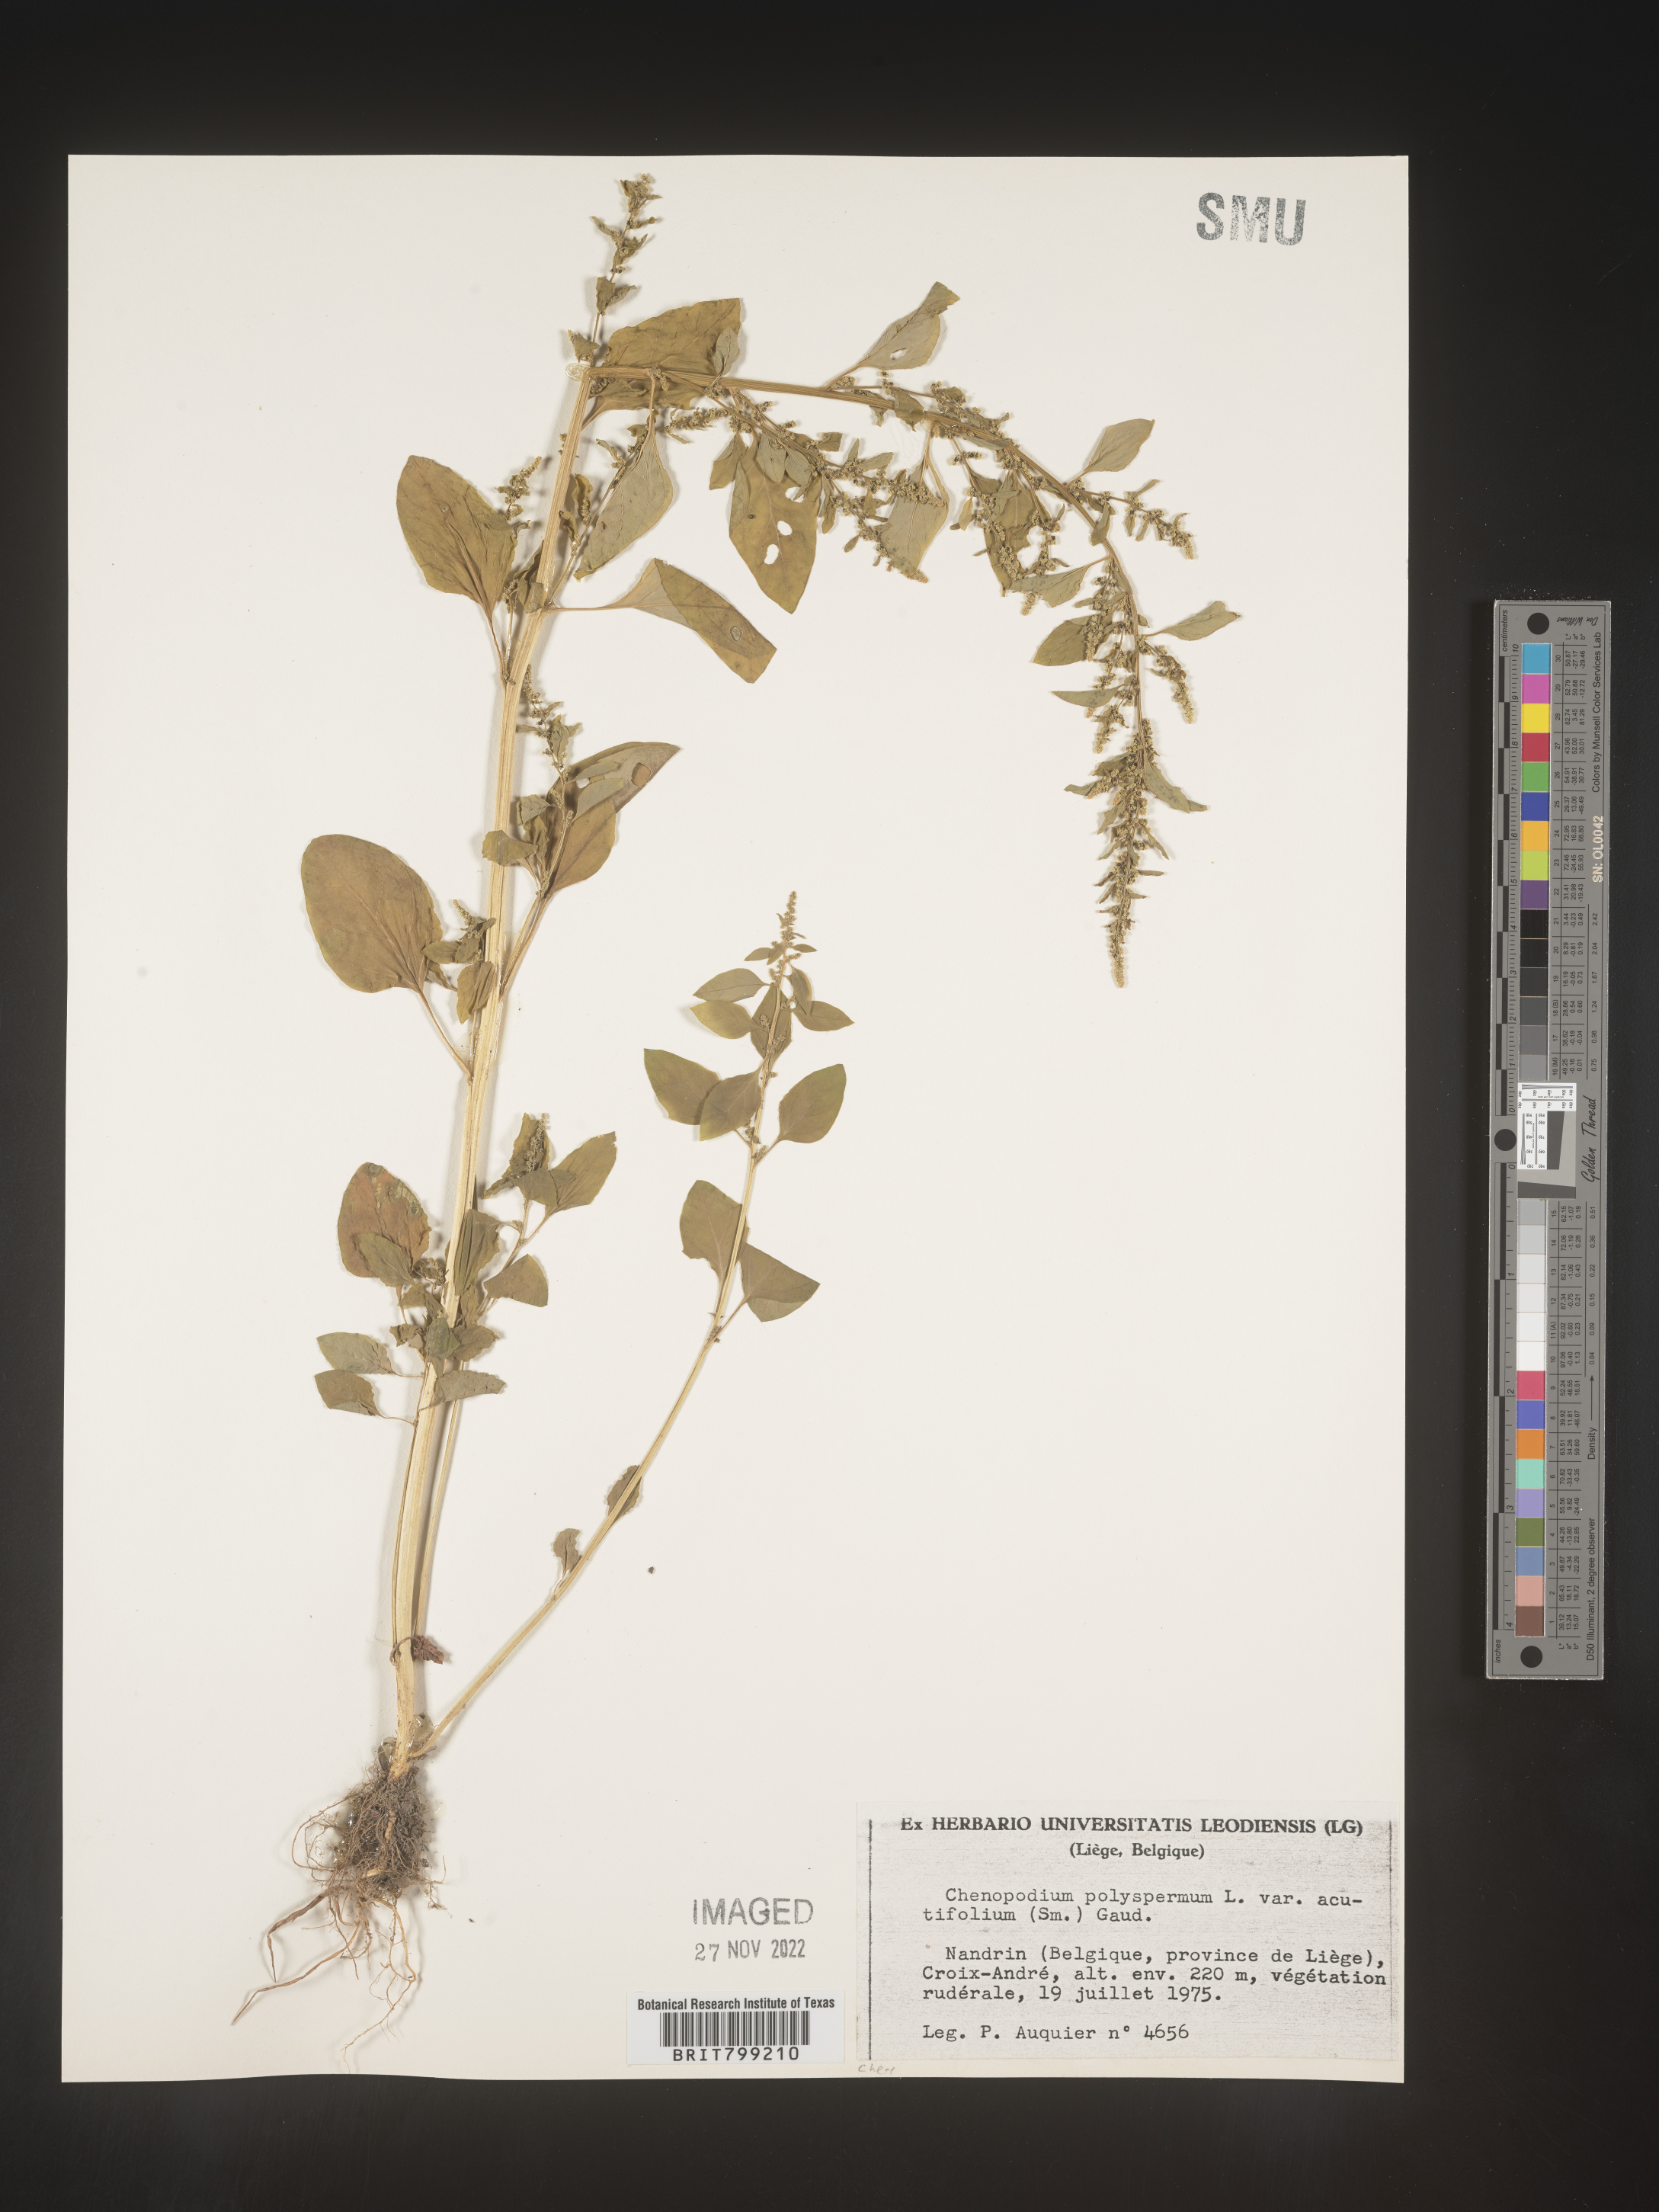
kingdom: Plantae
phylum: Tracheophyta
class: Magnoliopsida
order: Caryophyllales
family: Amaranthaceae
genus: Chenopodium
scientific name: Chenopodium
